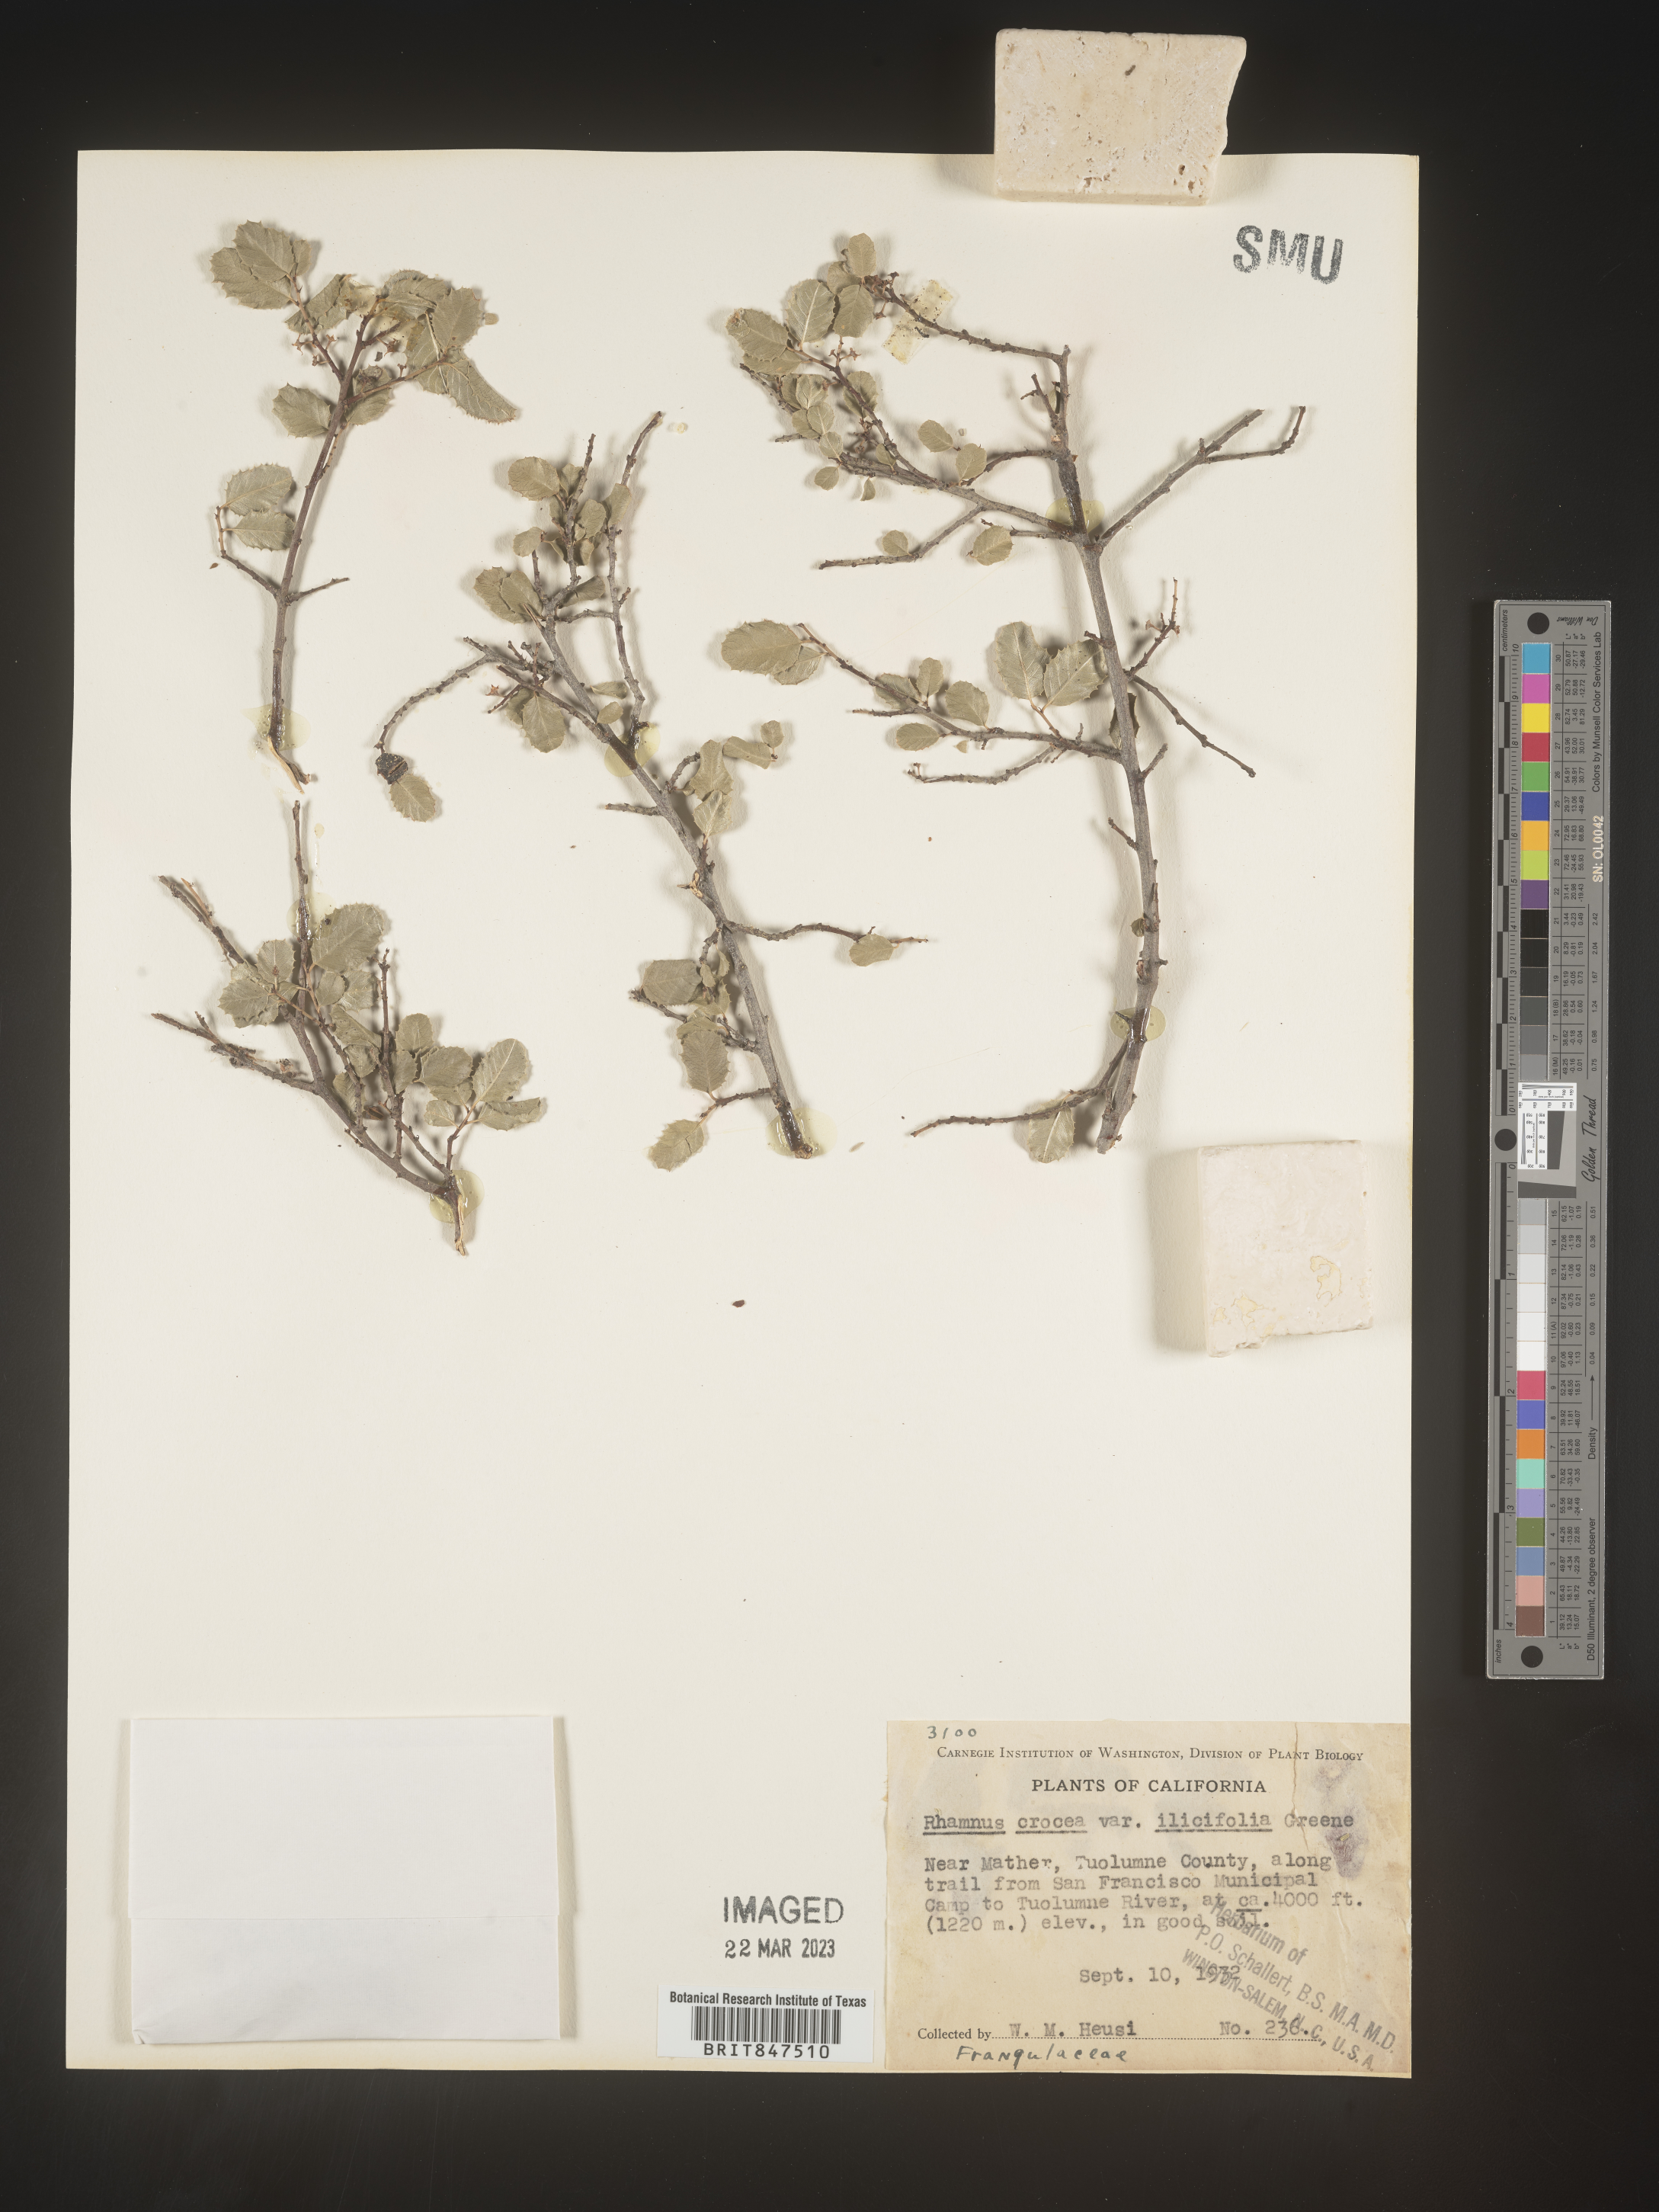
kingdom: Plantae
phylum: Tracheophyta
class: Magnoliopsida
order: Rosales
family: Rhamnaceae
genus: Endotropis
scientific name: Endotropis crocea
